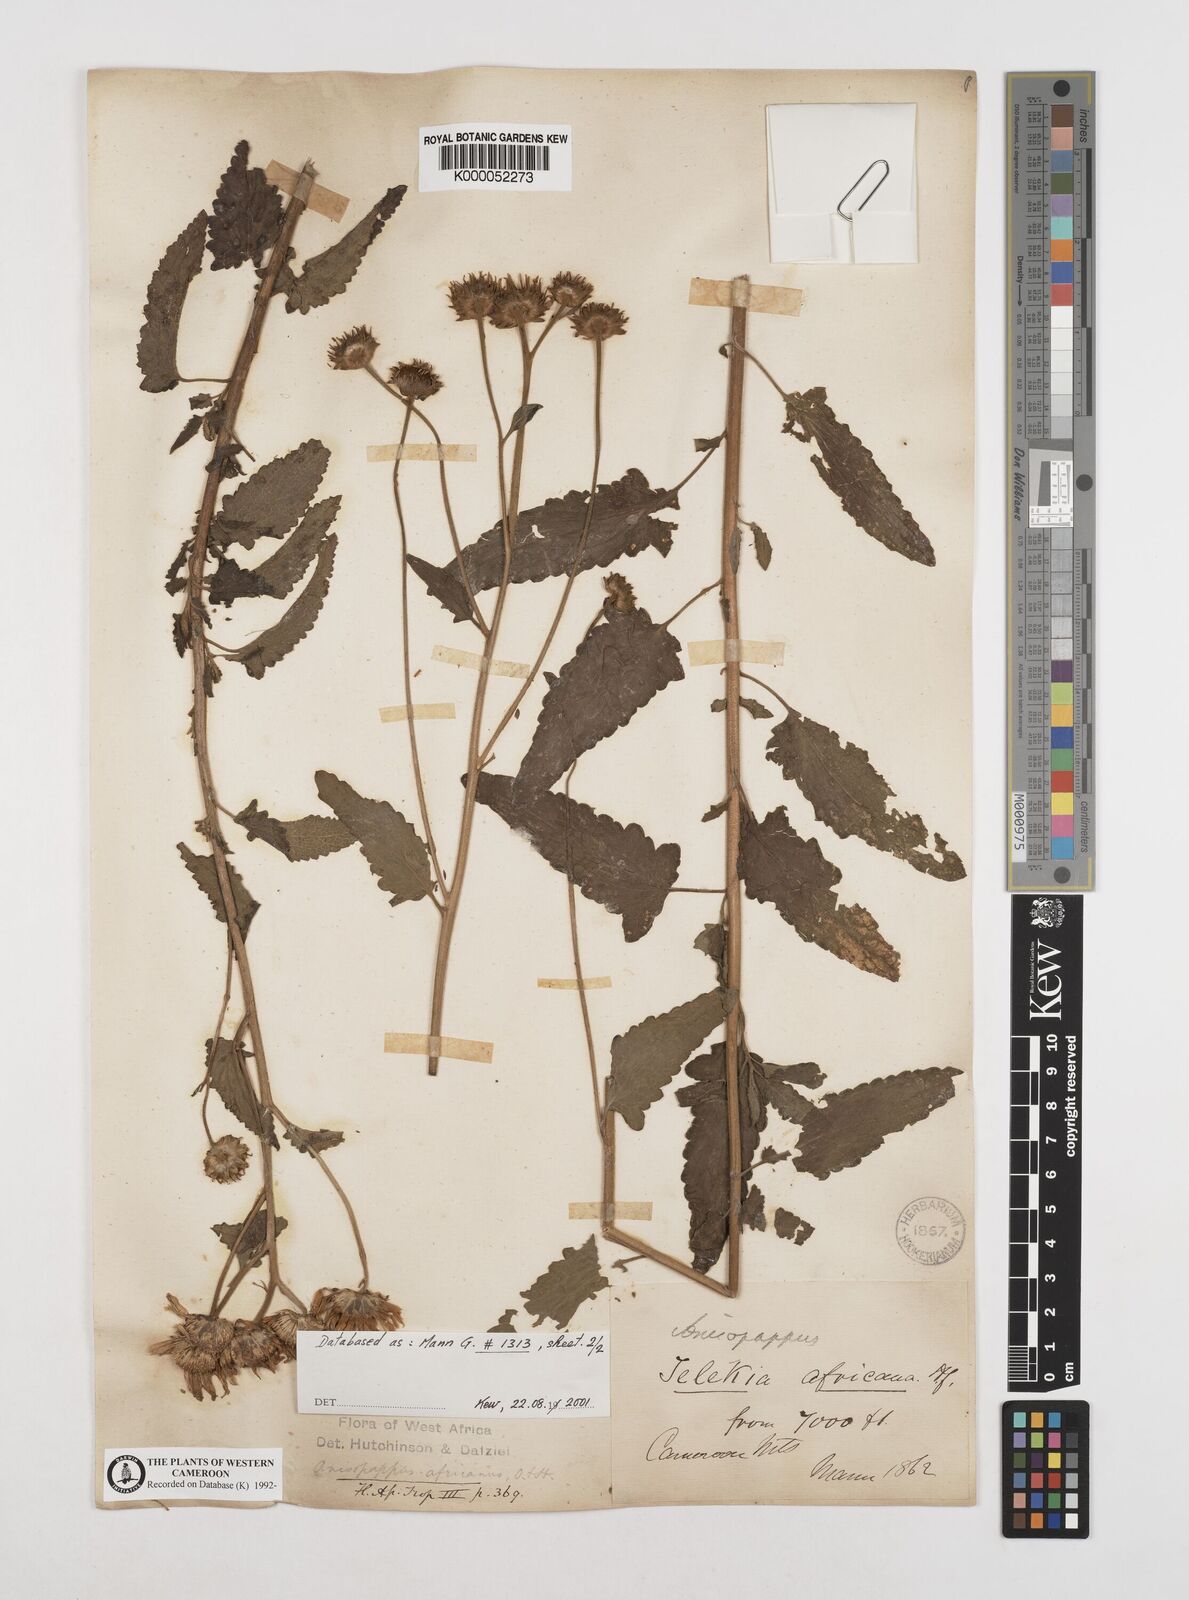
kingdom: Plantae
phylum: Tracheophyta
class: Magnoliopsida
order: Asterales
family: Asteraceae
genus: Anisopappus
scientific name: Anisopappus chinensis
